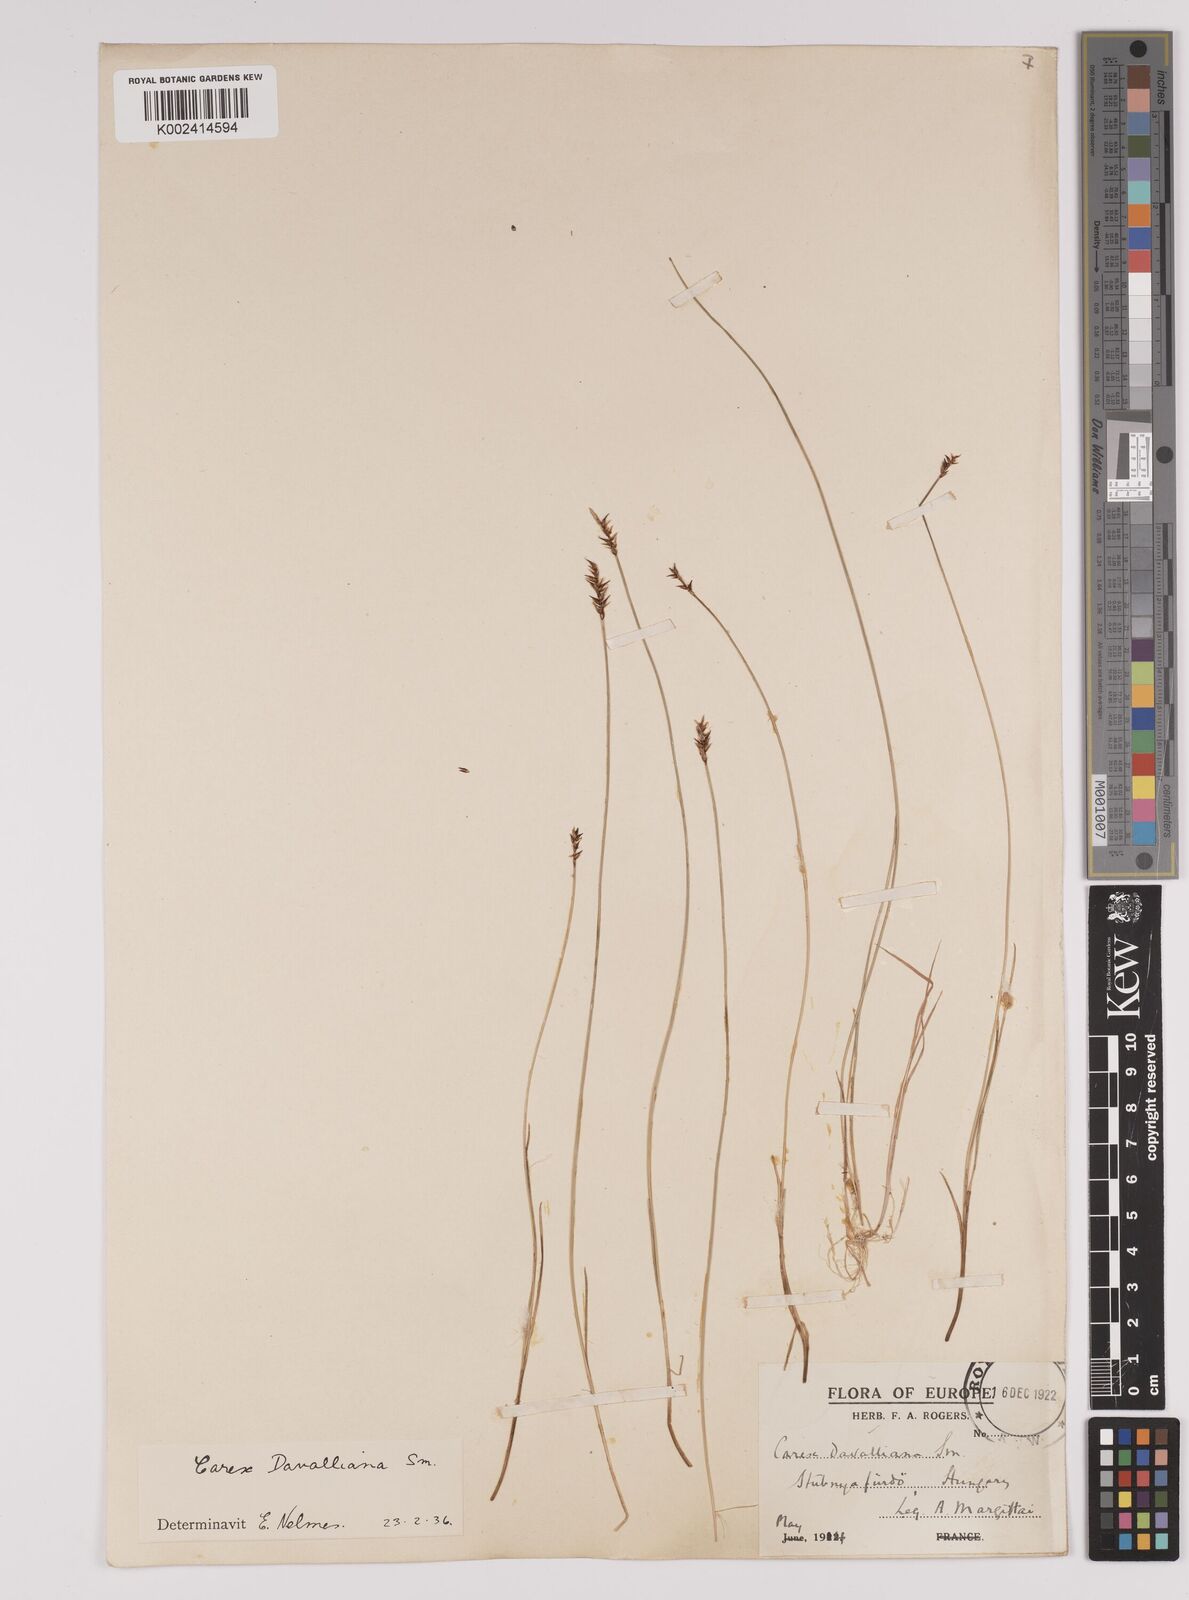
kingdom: Plantae
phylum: Tracheophyta
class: Liliopsida
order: Poales
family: Cyperaceae
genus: Carex
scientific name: Carex davalliana
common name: Davall's sedge
